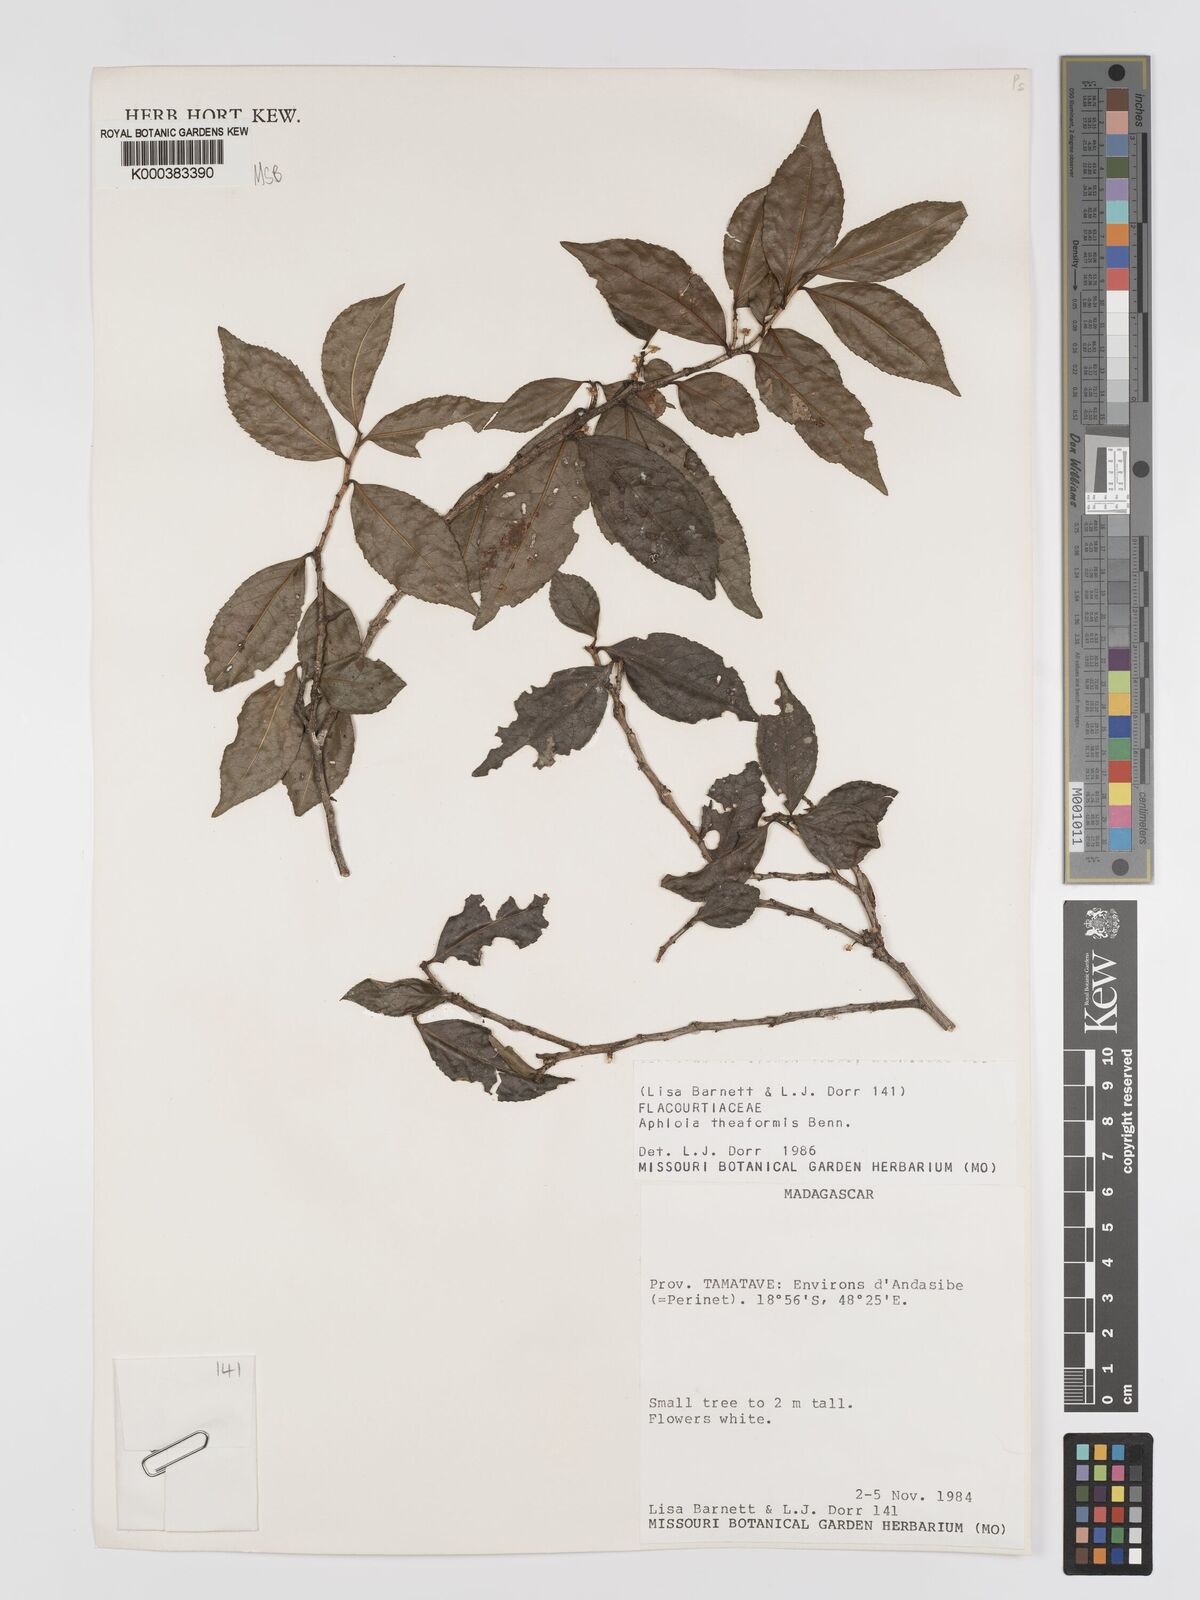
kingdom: Plantae
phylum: Tracheophyta
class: Magnoliopsida
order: Crossosomatales
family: Aphloiaceae
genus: Aphloia
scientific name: Aphloia theiformis
